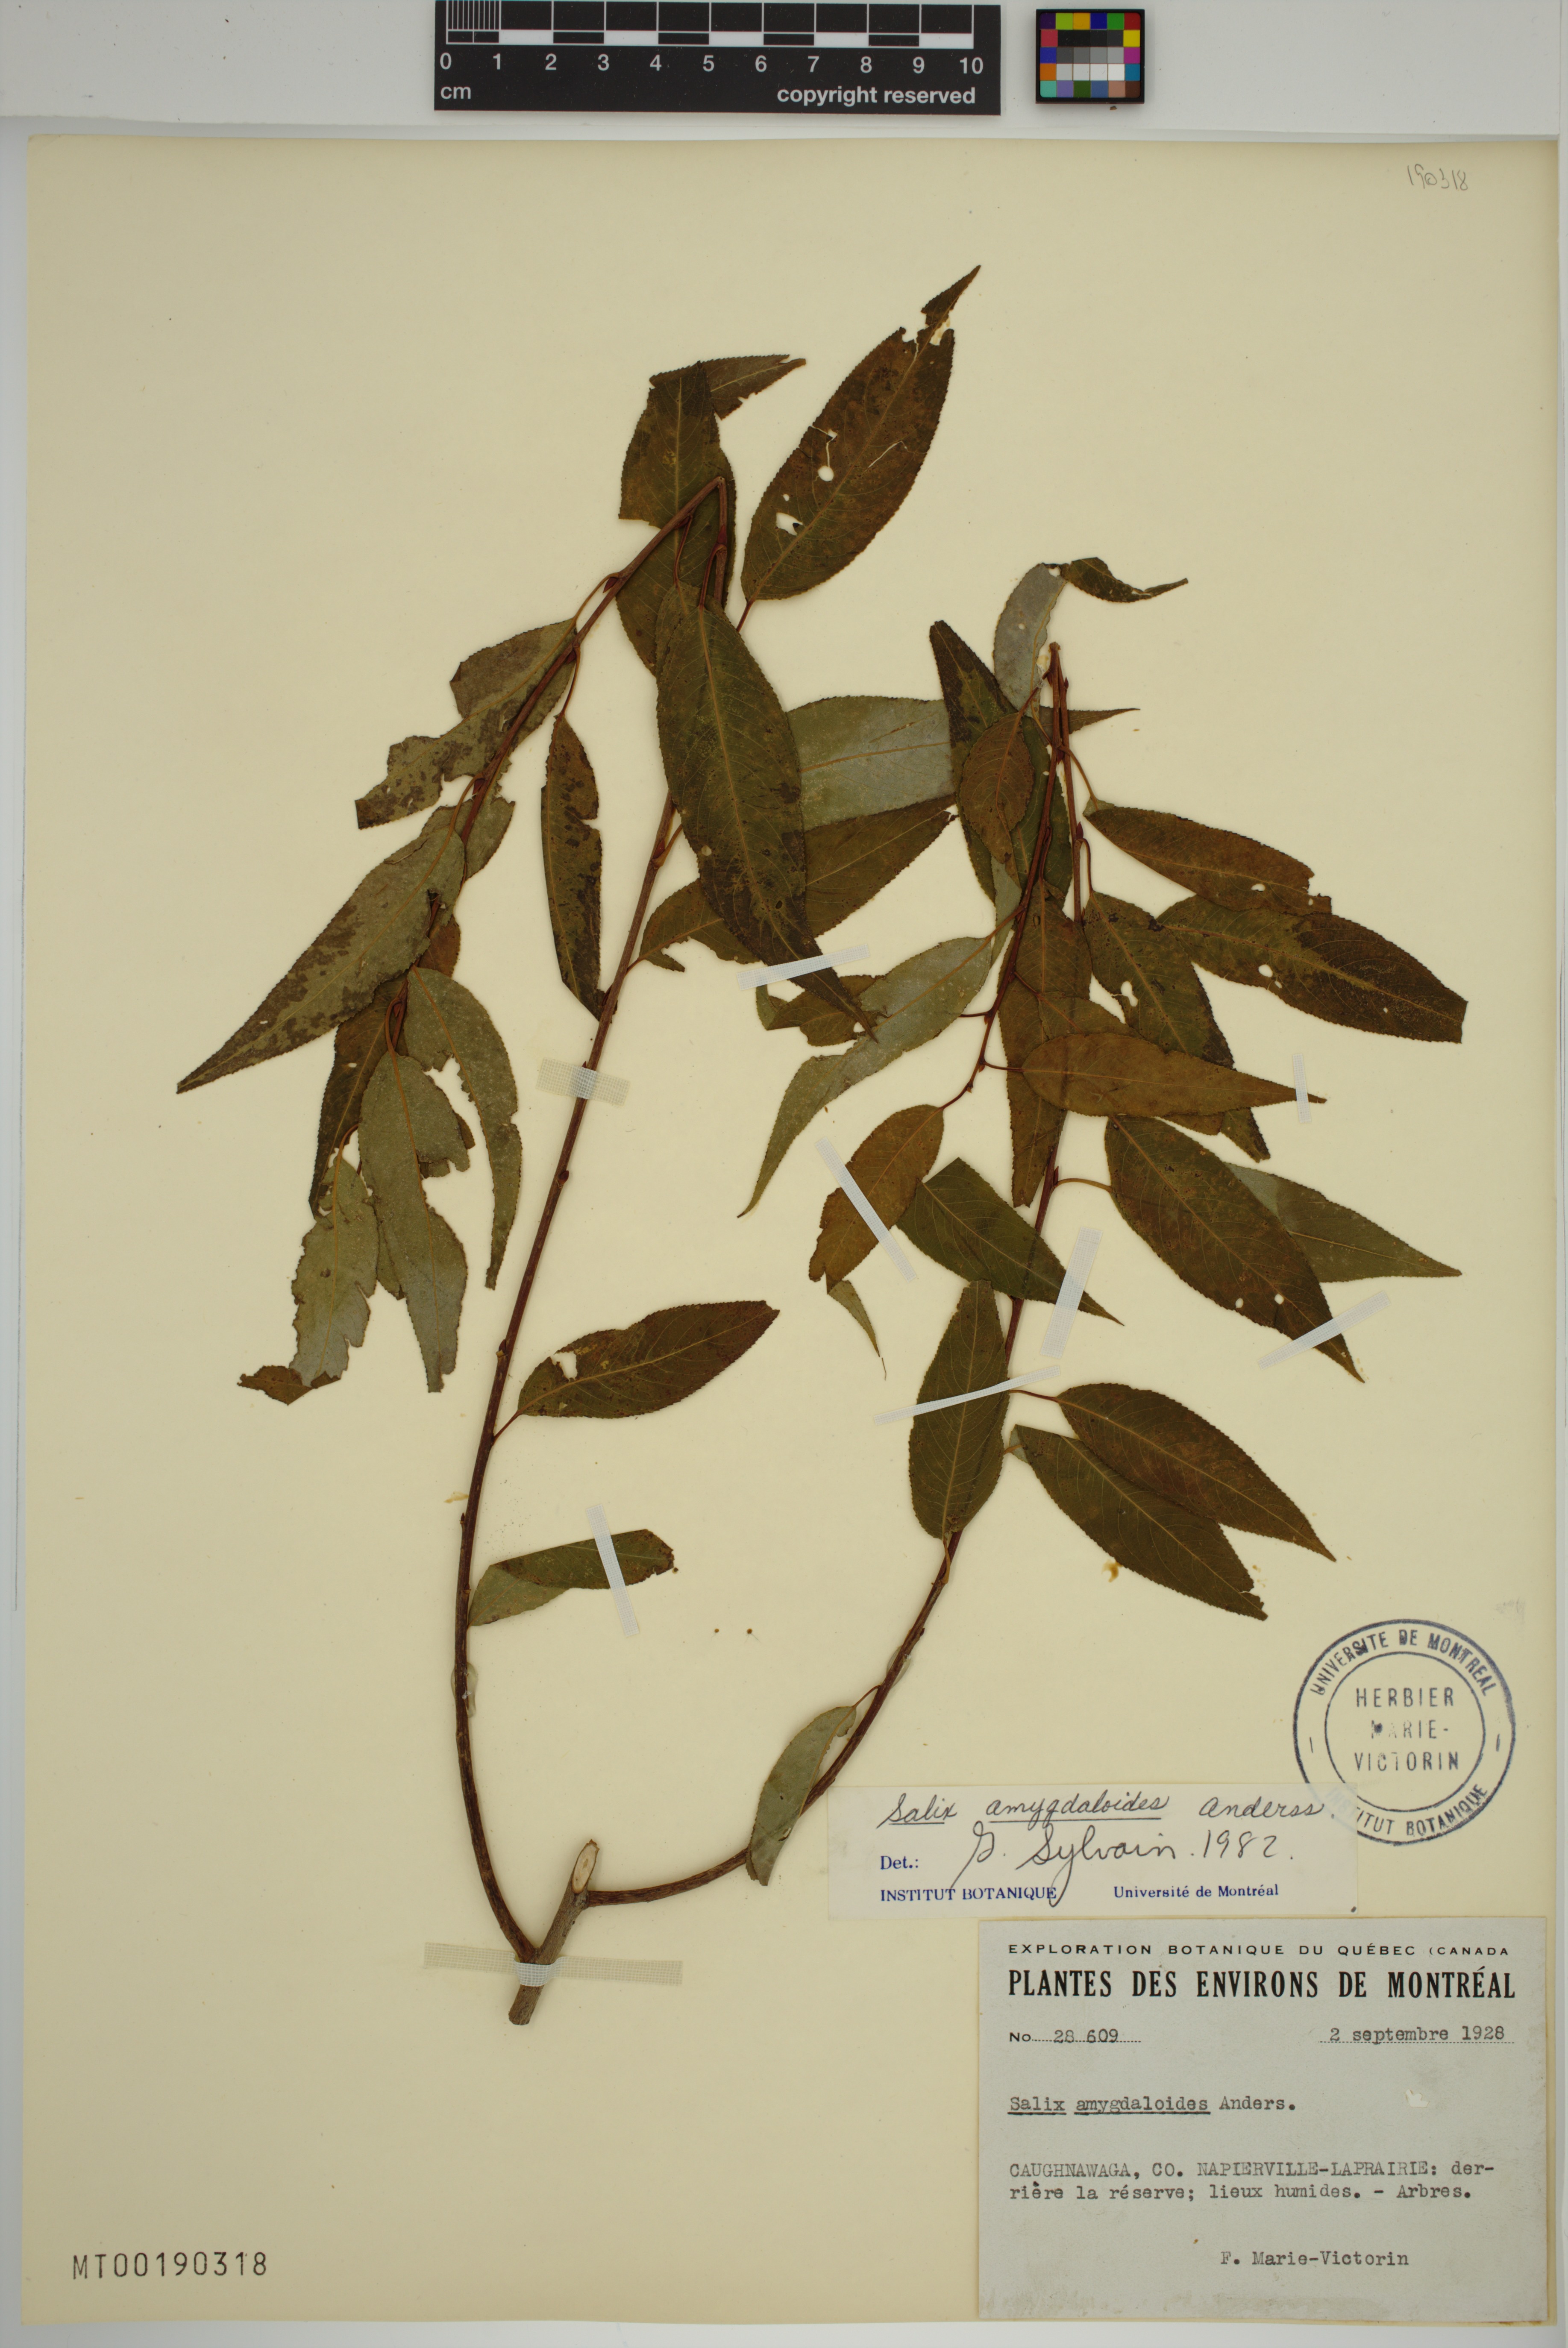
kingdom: Plantae
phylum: Tracheophyta
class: Magnoliopsida
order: Malpighiales
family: Salicaceae
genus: Salix
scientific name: Salix amygdaloides
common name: Peach leaf willow
